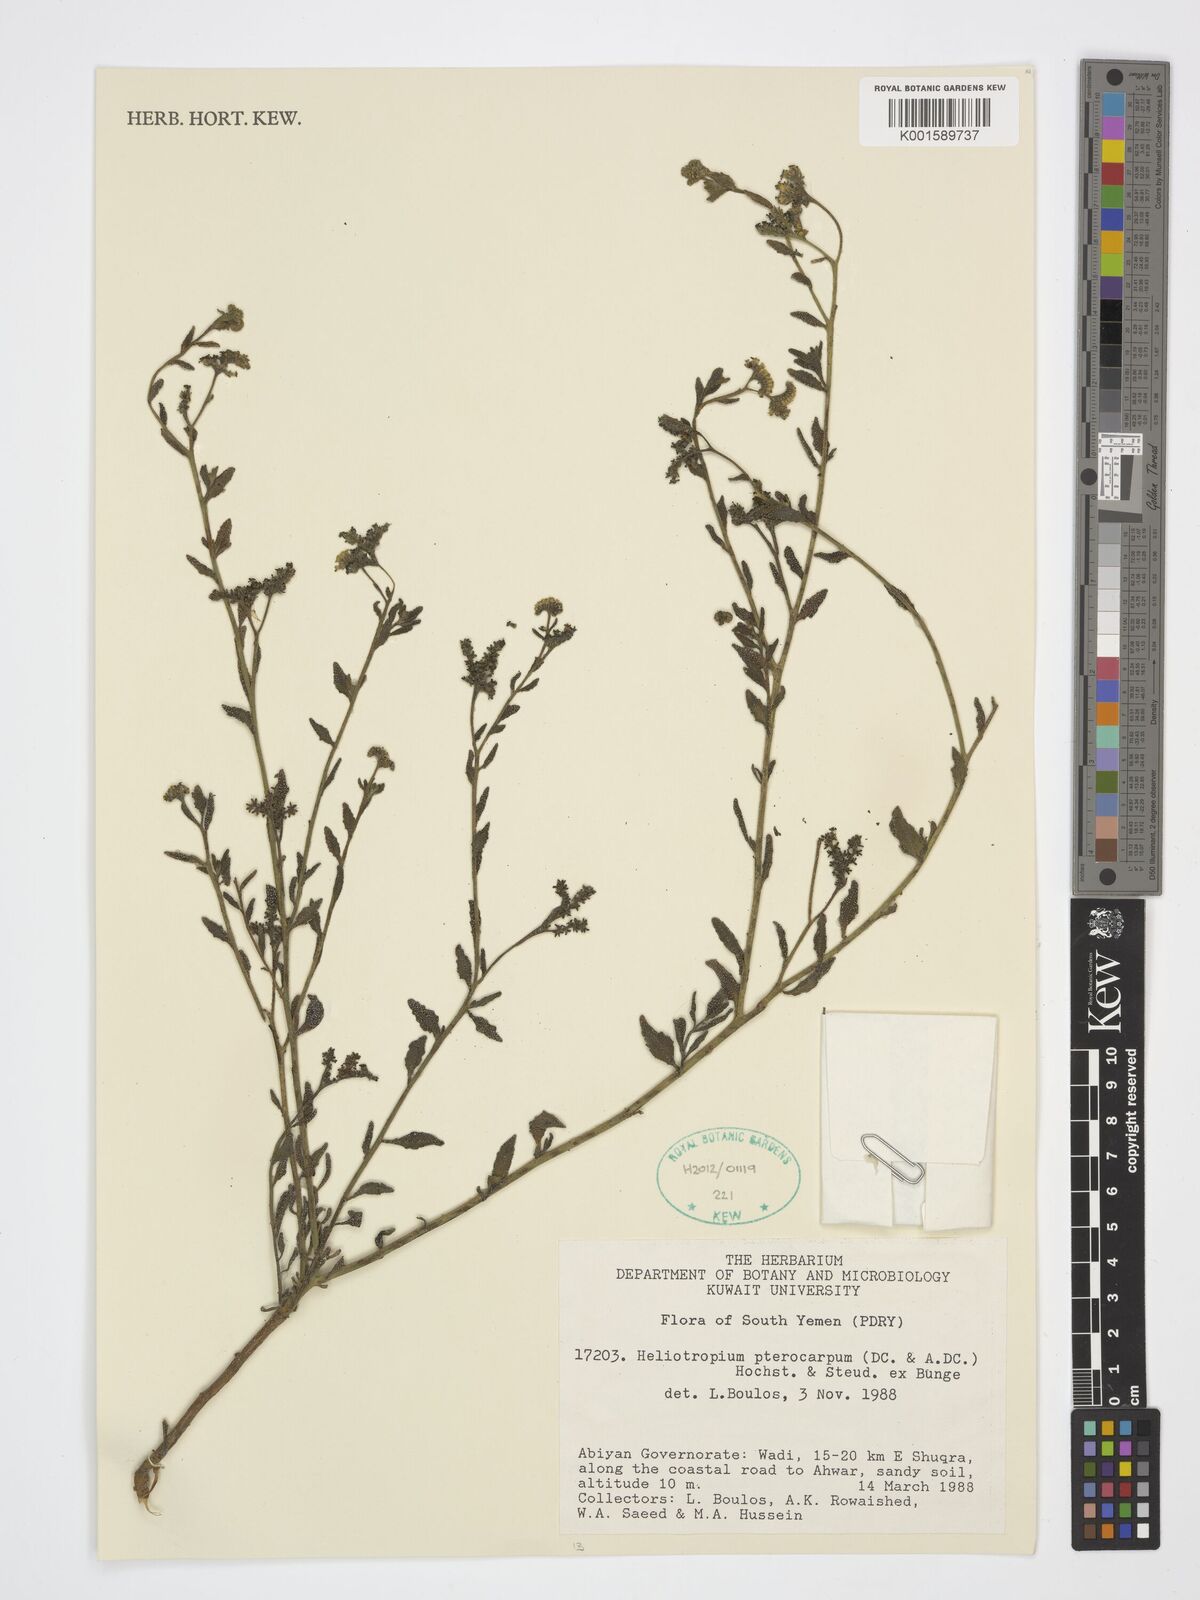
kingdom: Plantae
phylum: Tracheophyta
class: Magnoliopsida
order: Boraginales
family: Heliotropiaceae
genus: Heliotropium
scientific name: Heliotropium pterocarpum
